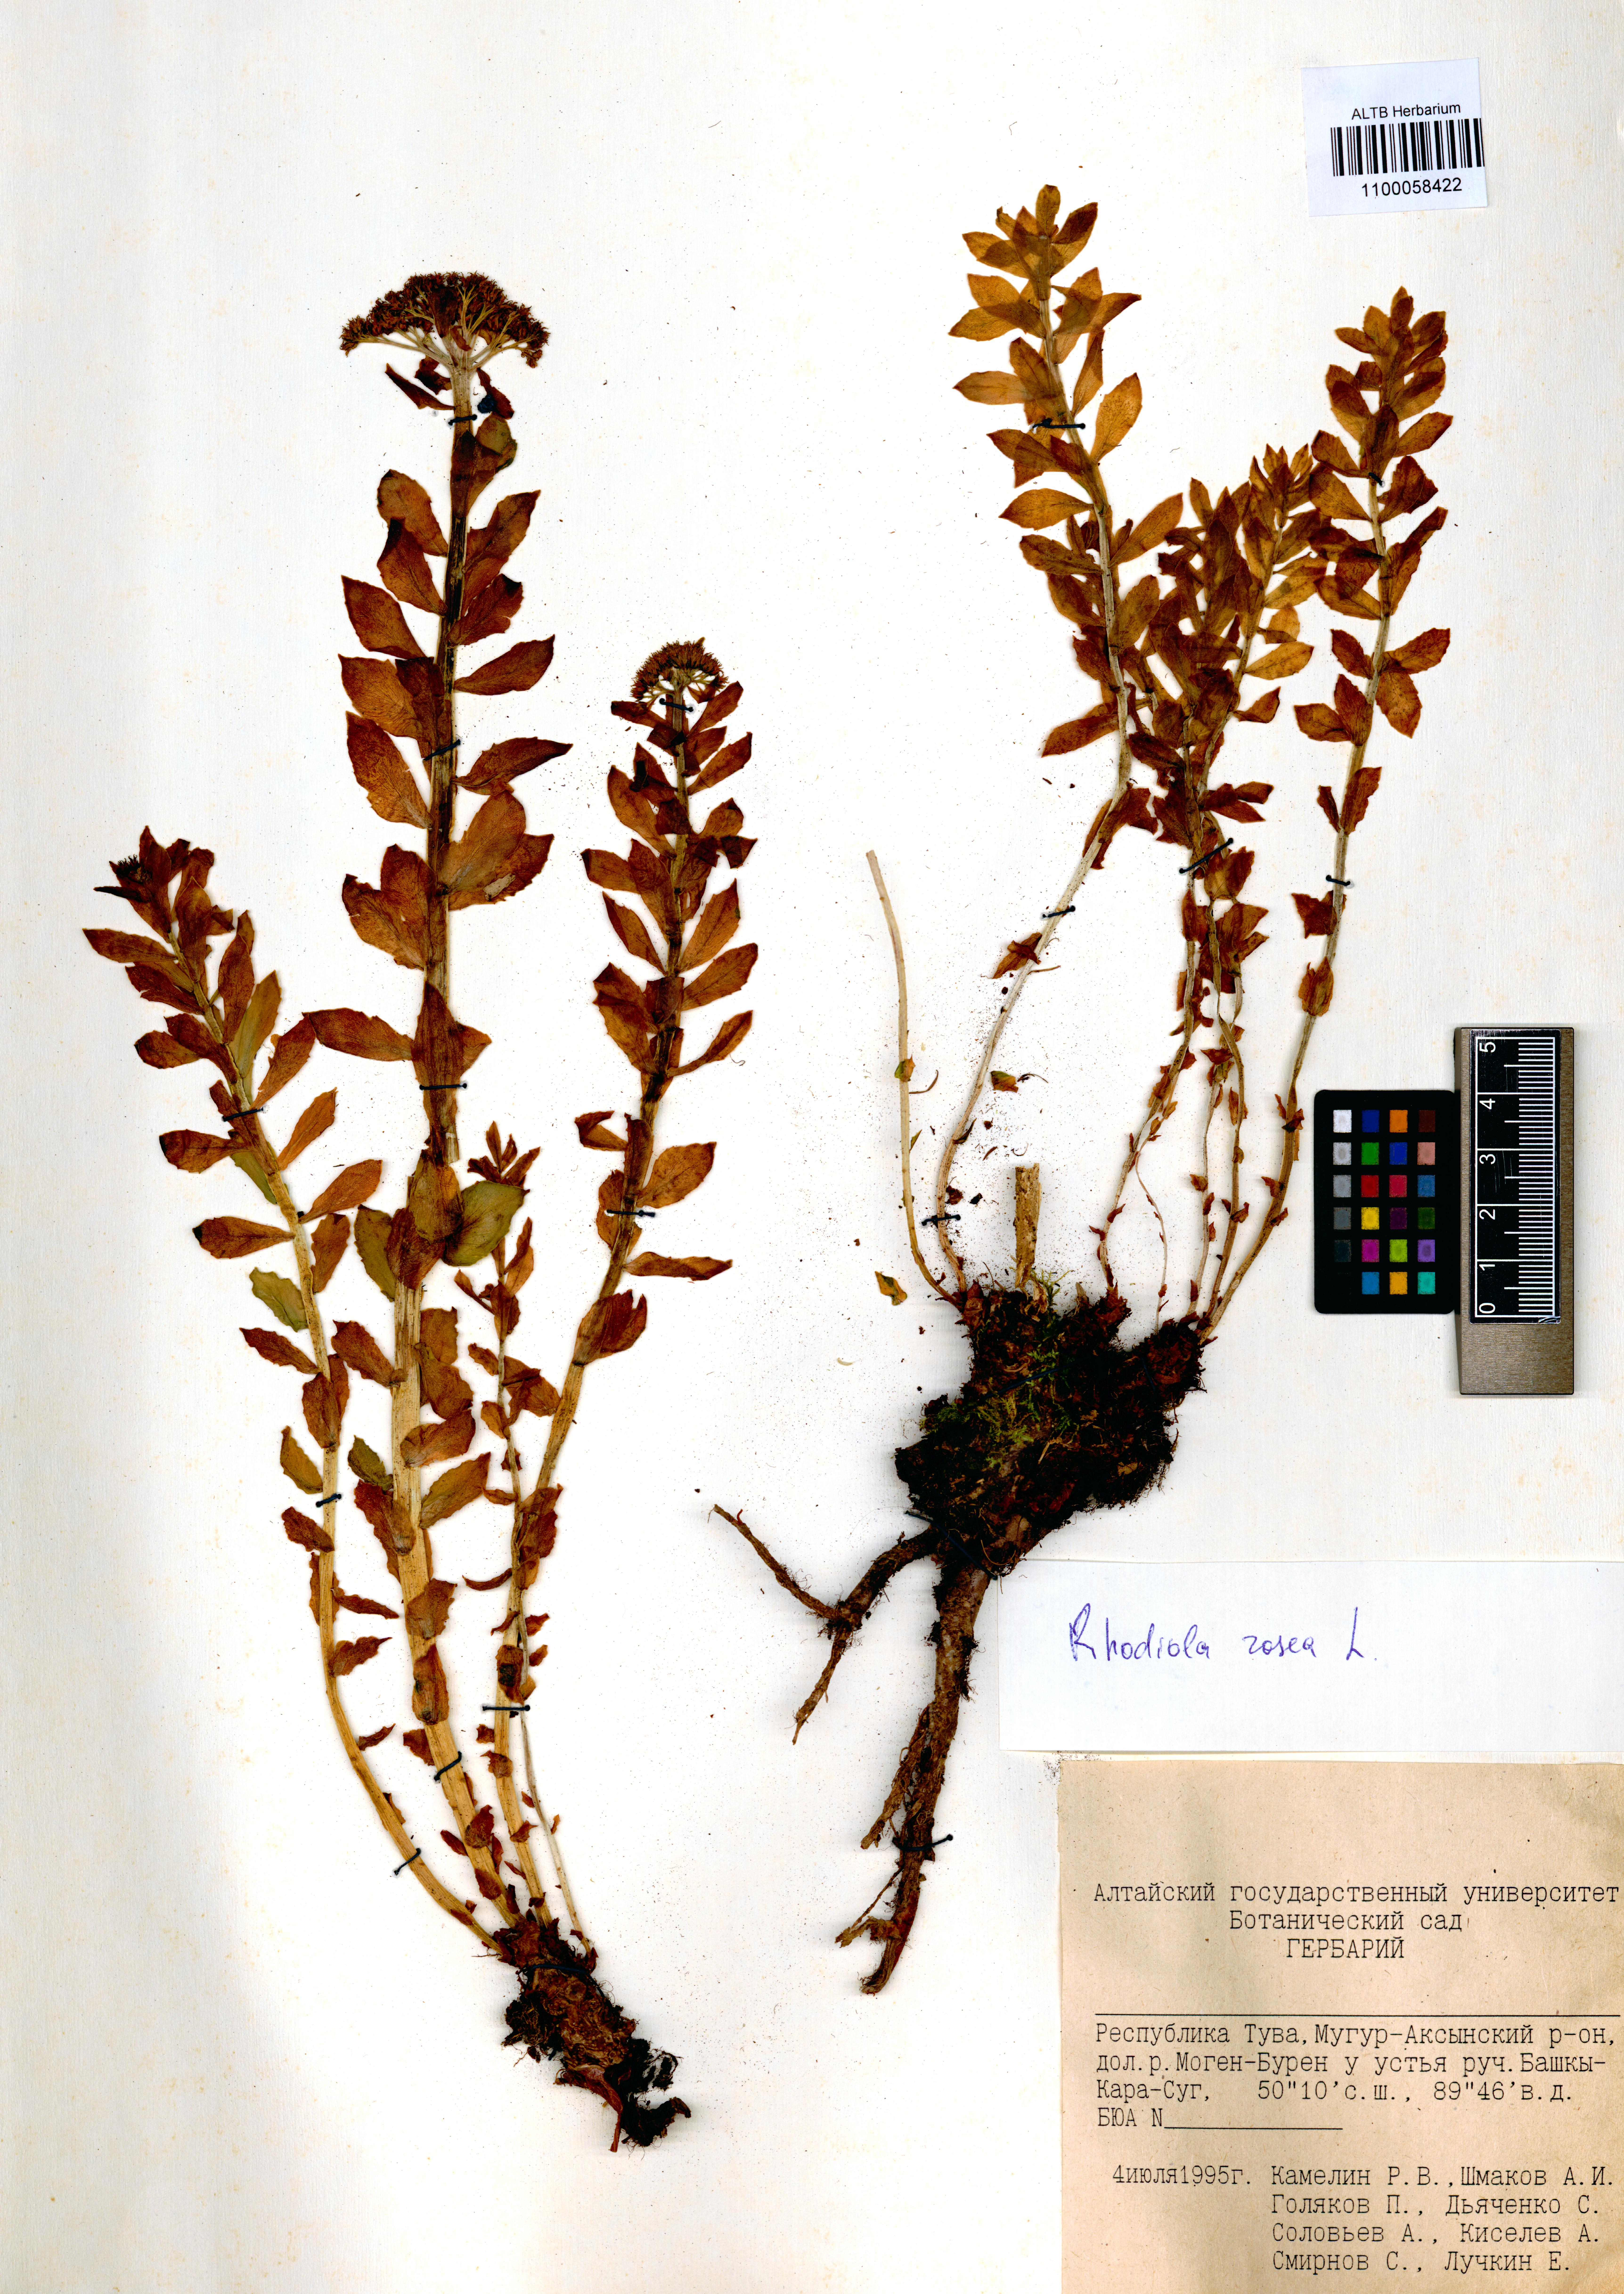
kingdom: Plantae
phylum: Tracheophyta
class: Magnoliopsida
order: Saxifragales
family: Crassulaceae
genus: Rhodiola
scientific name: Rhodiola rosea
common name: Roseroot
